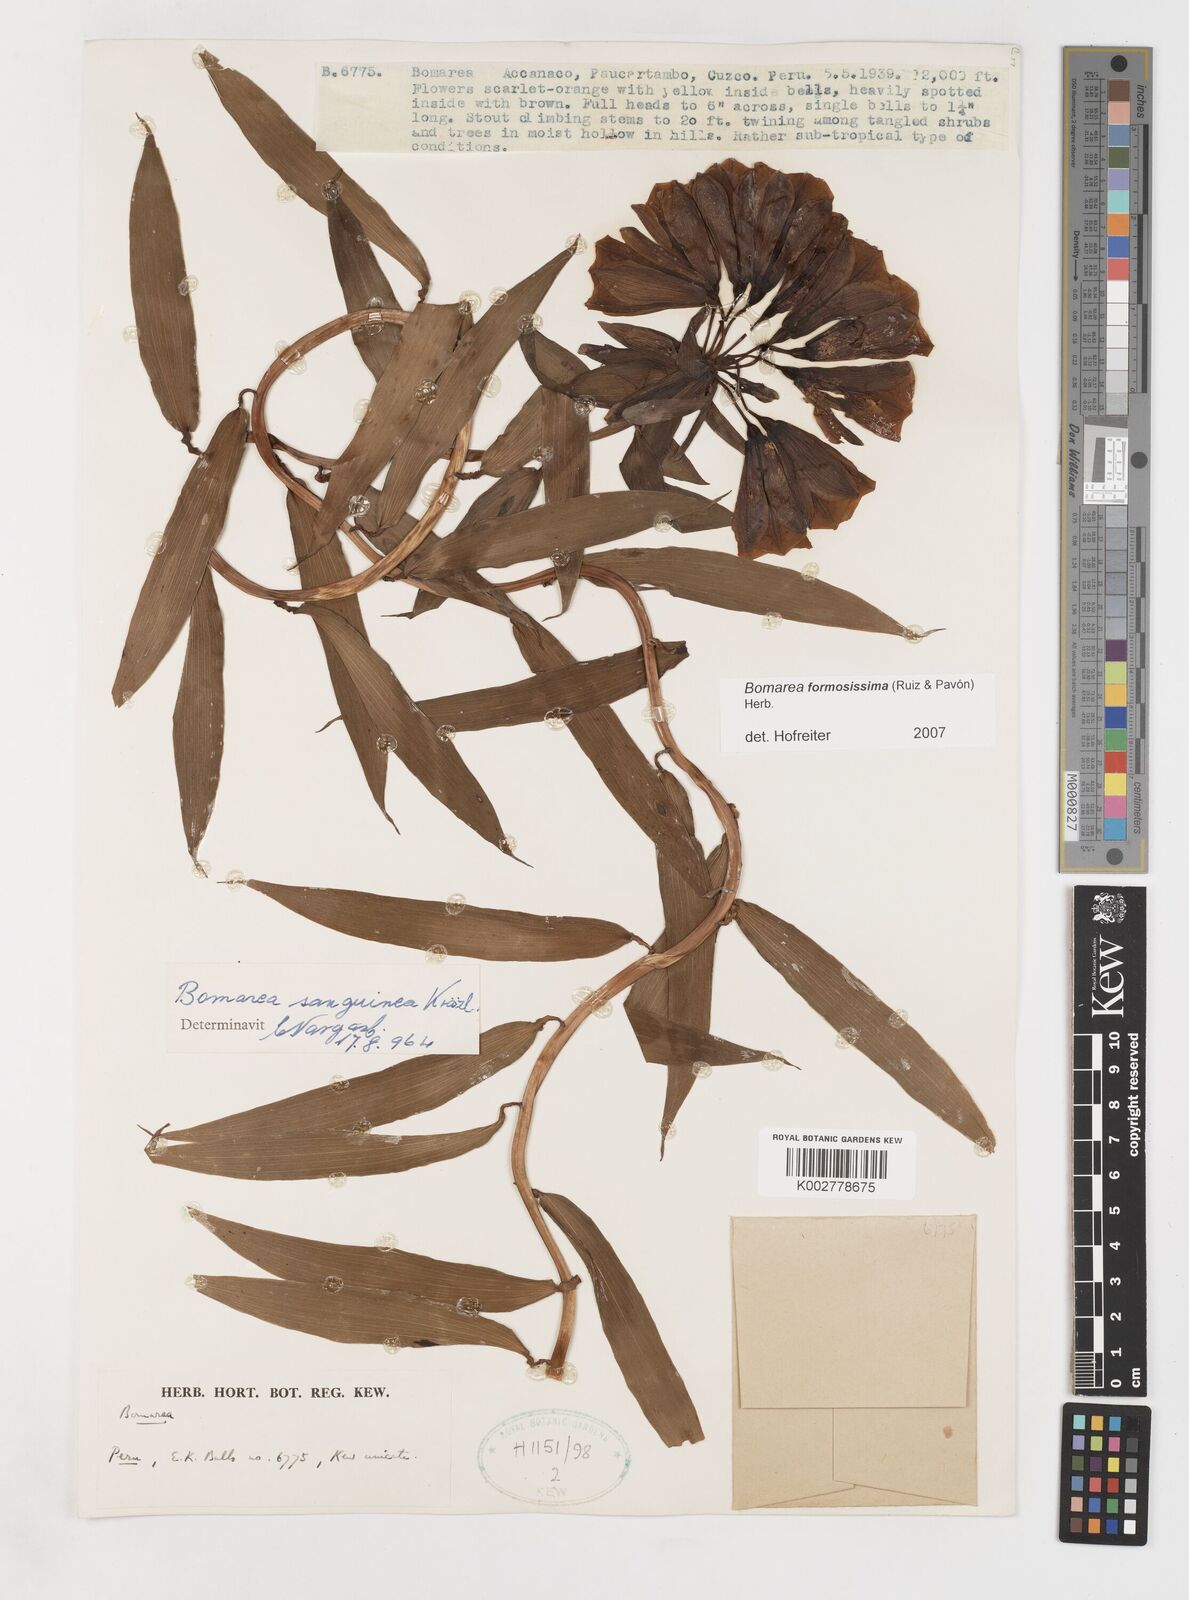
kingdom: Plantae
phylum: Tracheophyta
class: Liliopsida
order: Liliales
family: Alstroemeriaceae
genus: Bomarea
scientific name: Bomarea formosissima
